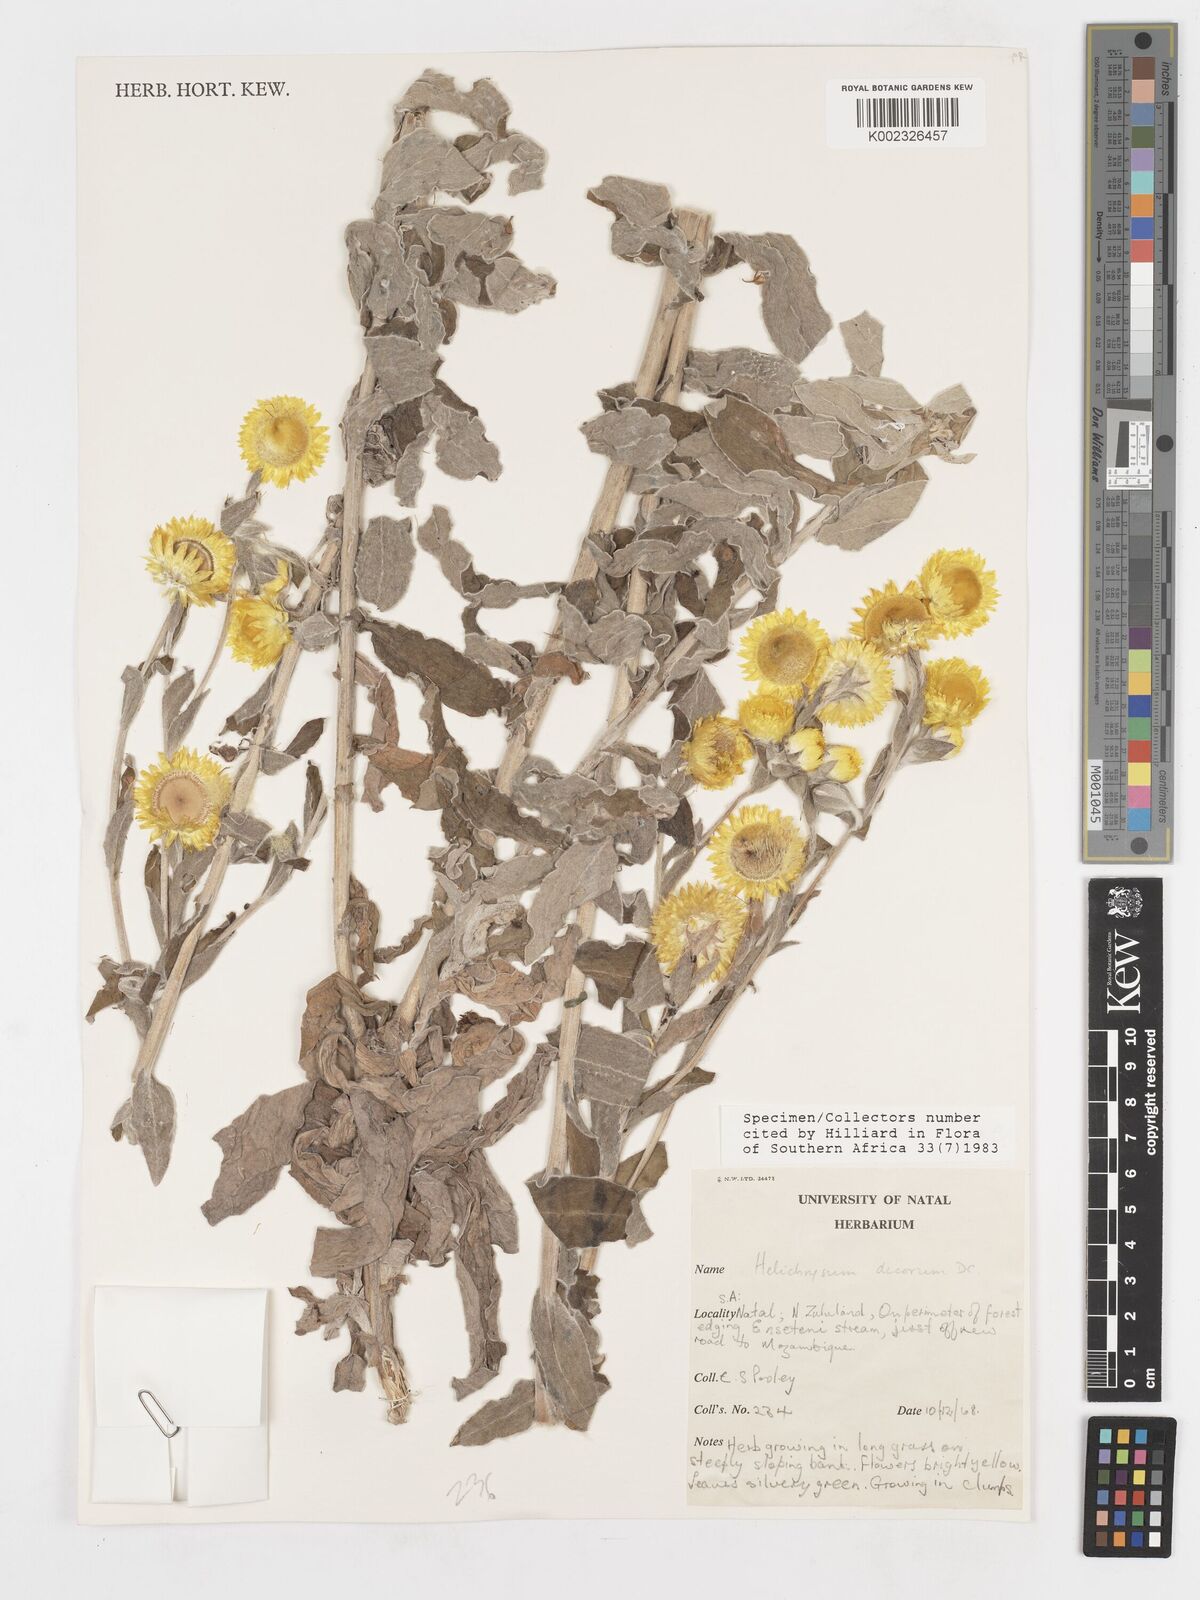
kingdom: Plantae
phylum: Tracheophyta
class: Magnoliopsida
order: Asterales
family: Asteraceae
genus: Helichrysum
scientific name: Helichrysum decorum
